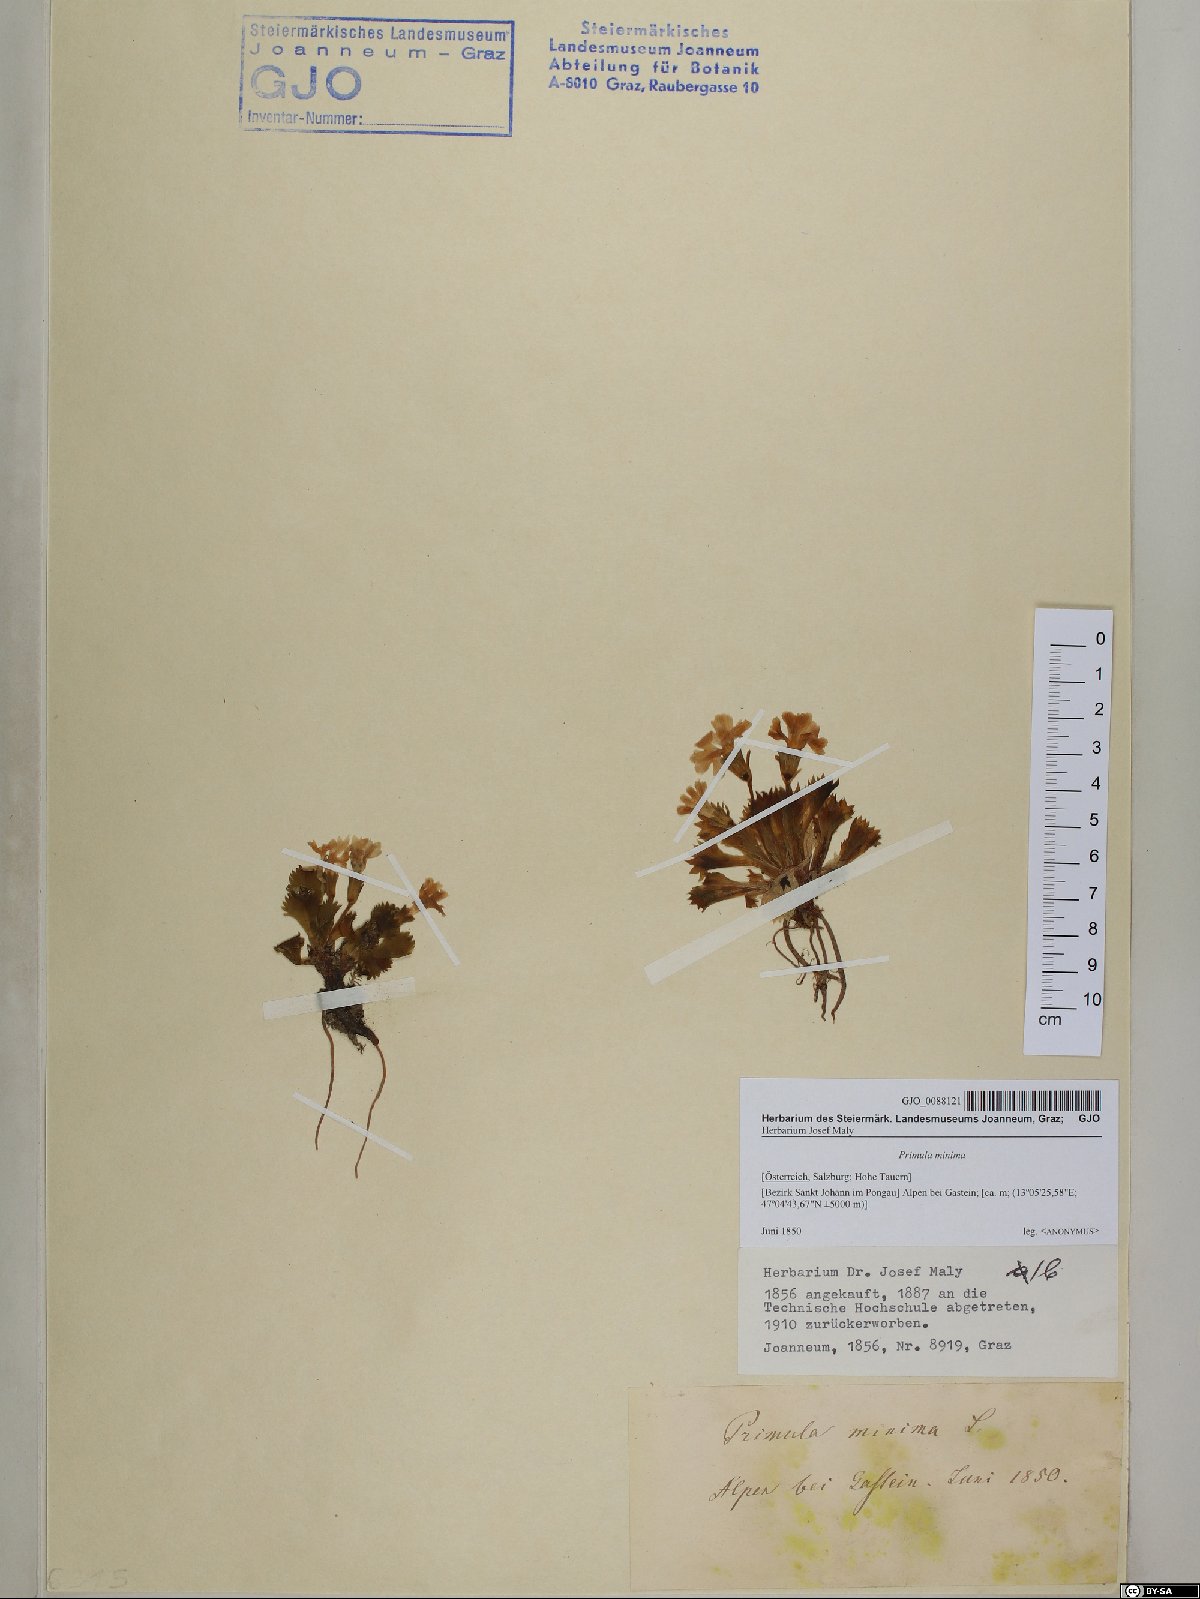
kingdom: Plantae
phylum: Tracheophyta
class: Magnoliopsida
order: Ericales
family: Primulaceae
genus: Primula
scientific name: Primula minima
